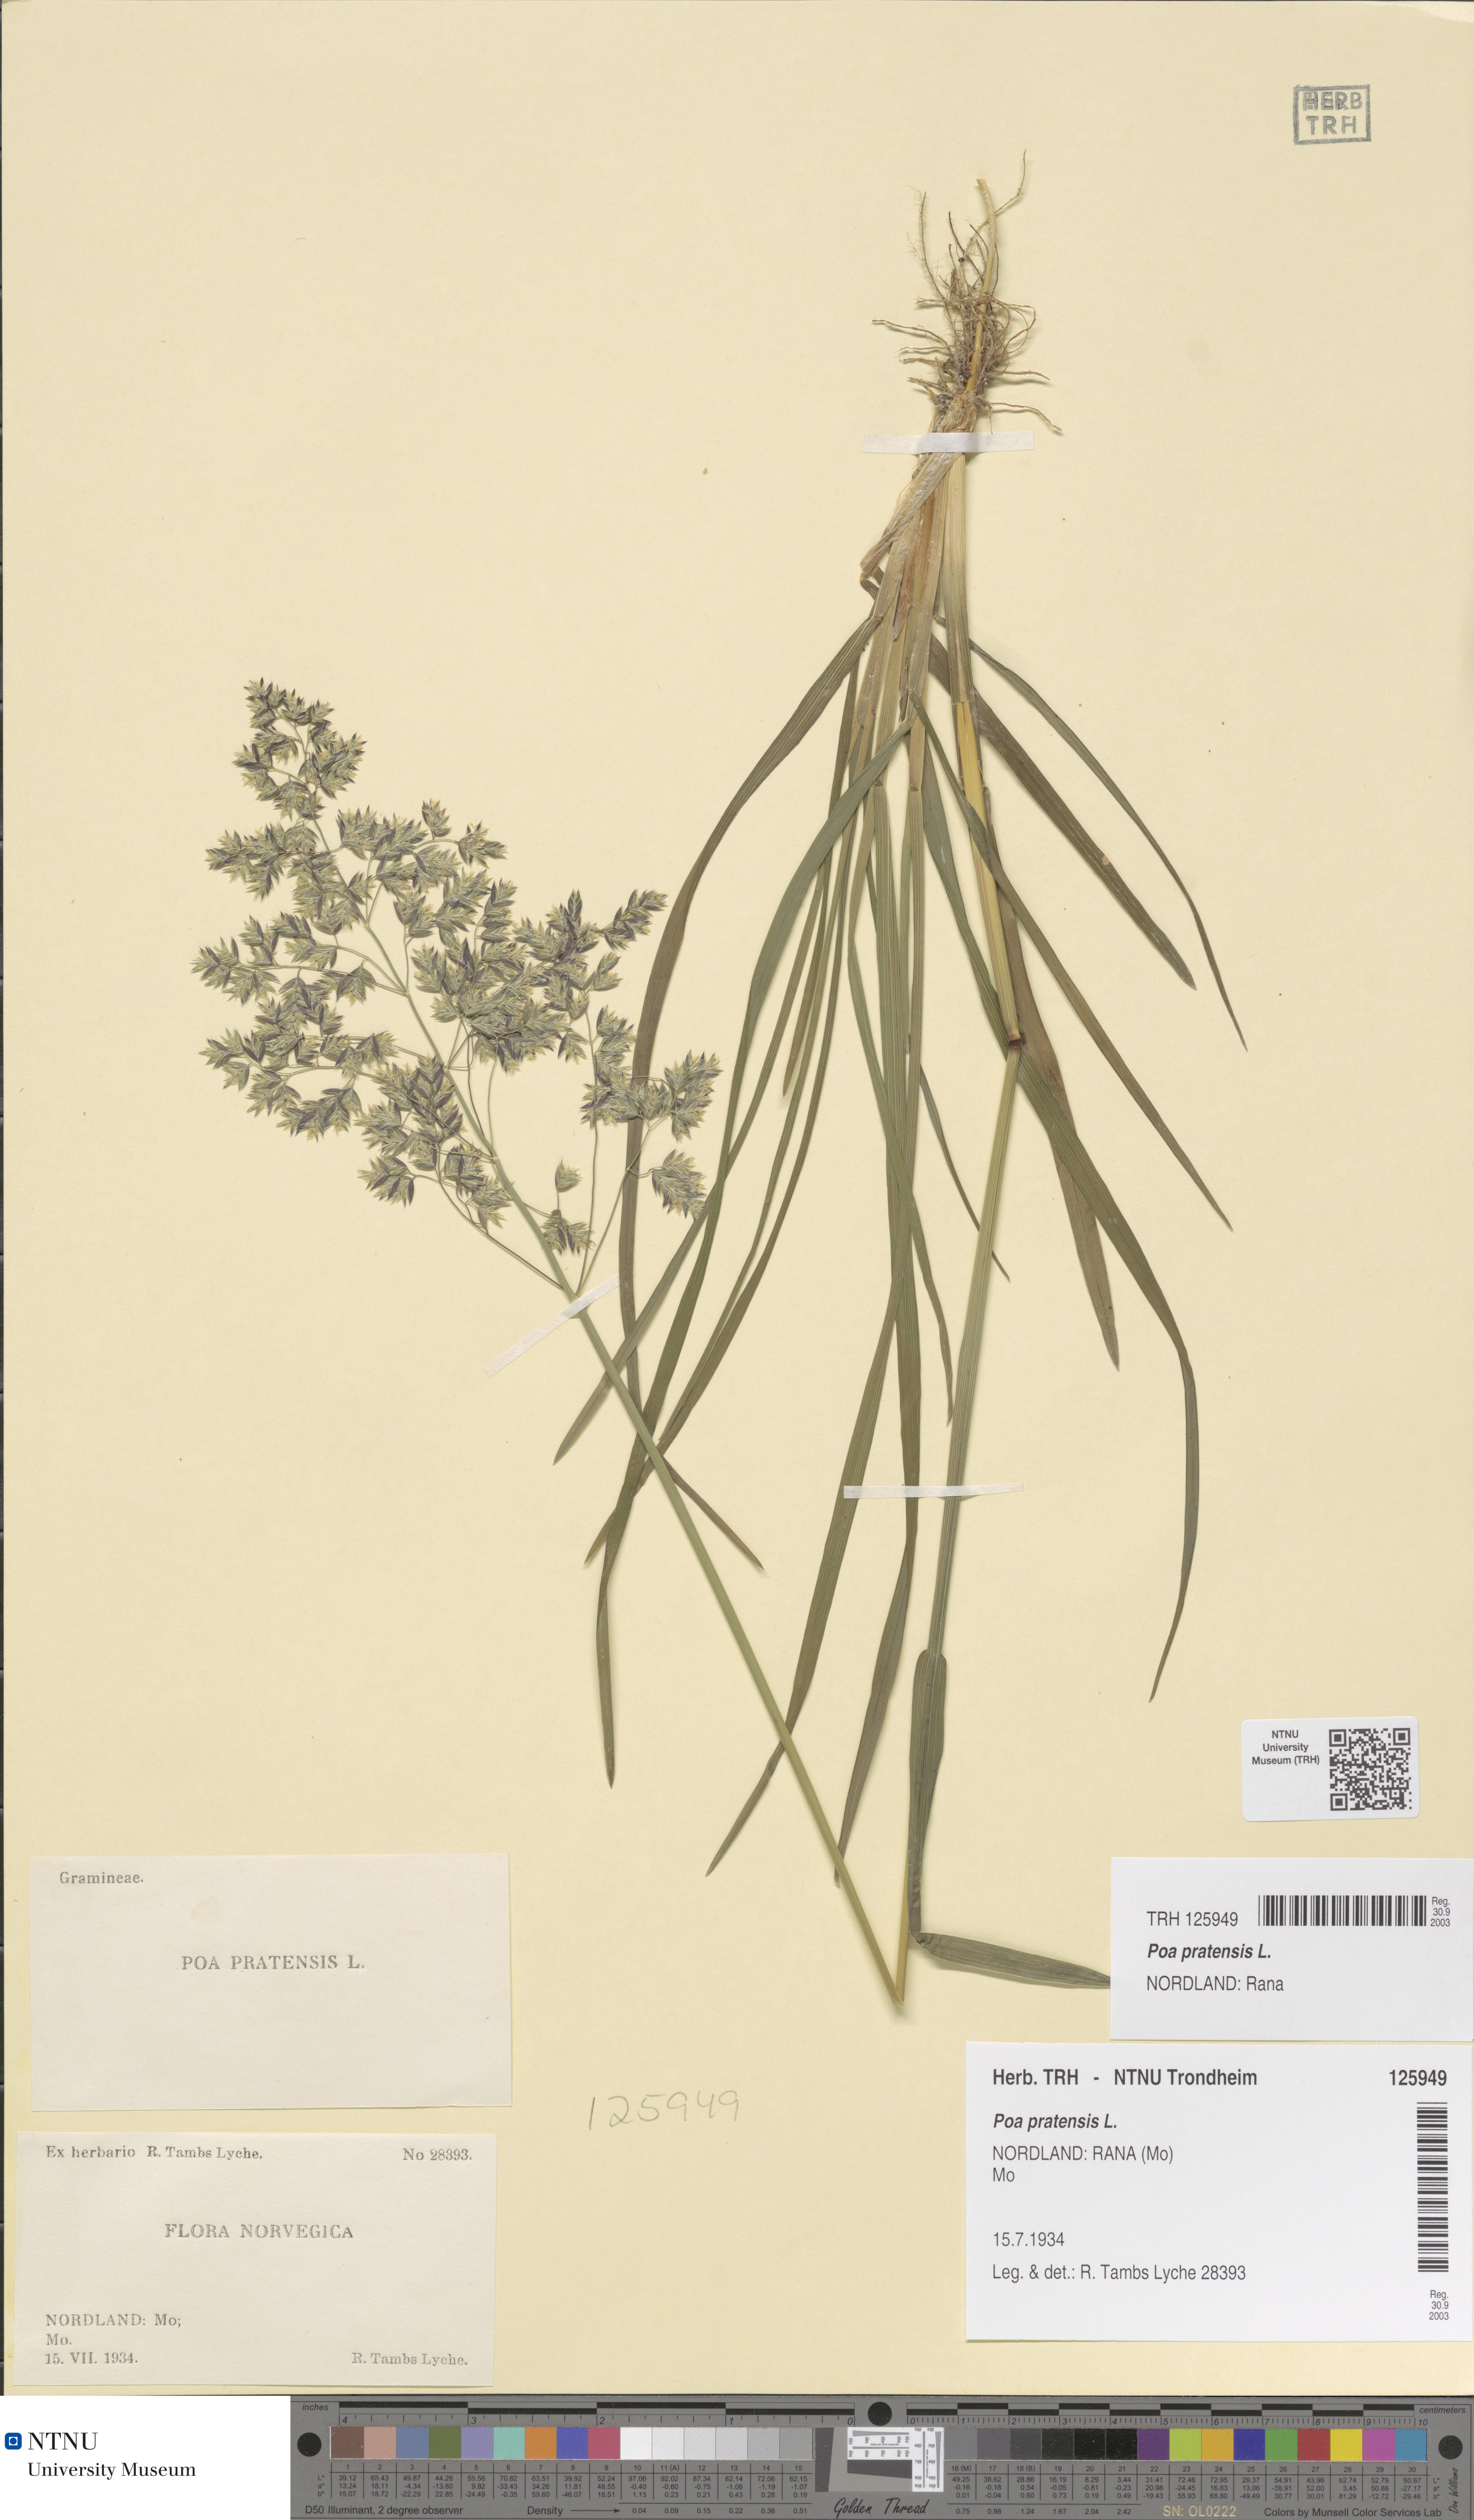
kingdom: Plantae
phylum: Tracheophyta
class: Liliopsida
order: Poales
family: Poaceae
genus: Poa
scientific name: Poa pratensis
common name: Kentucky bluegrass
